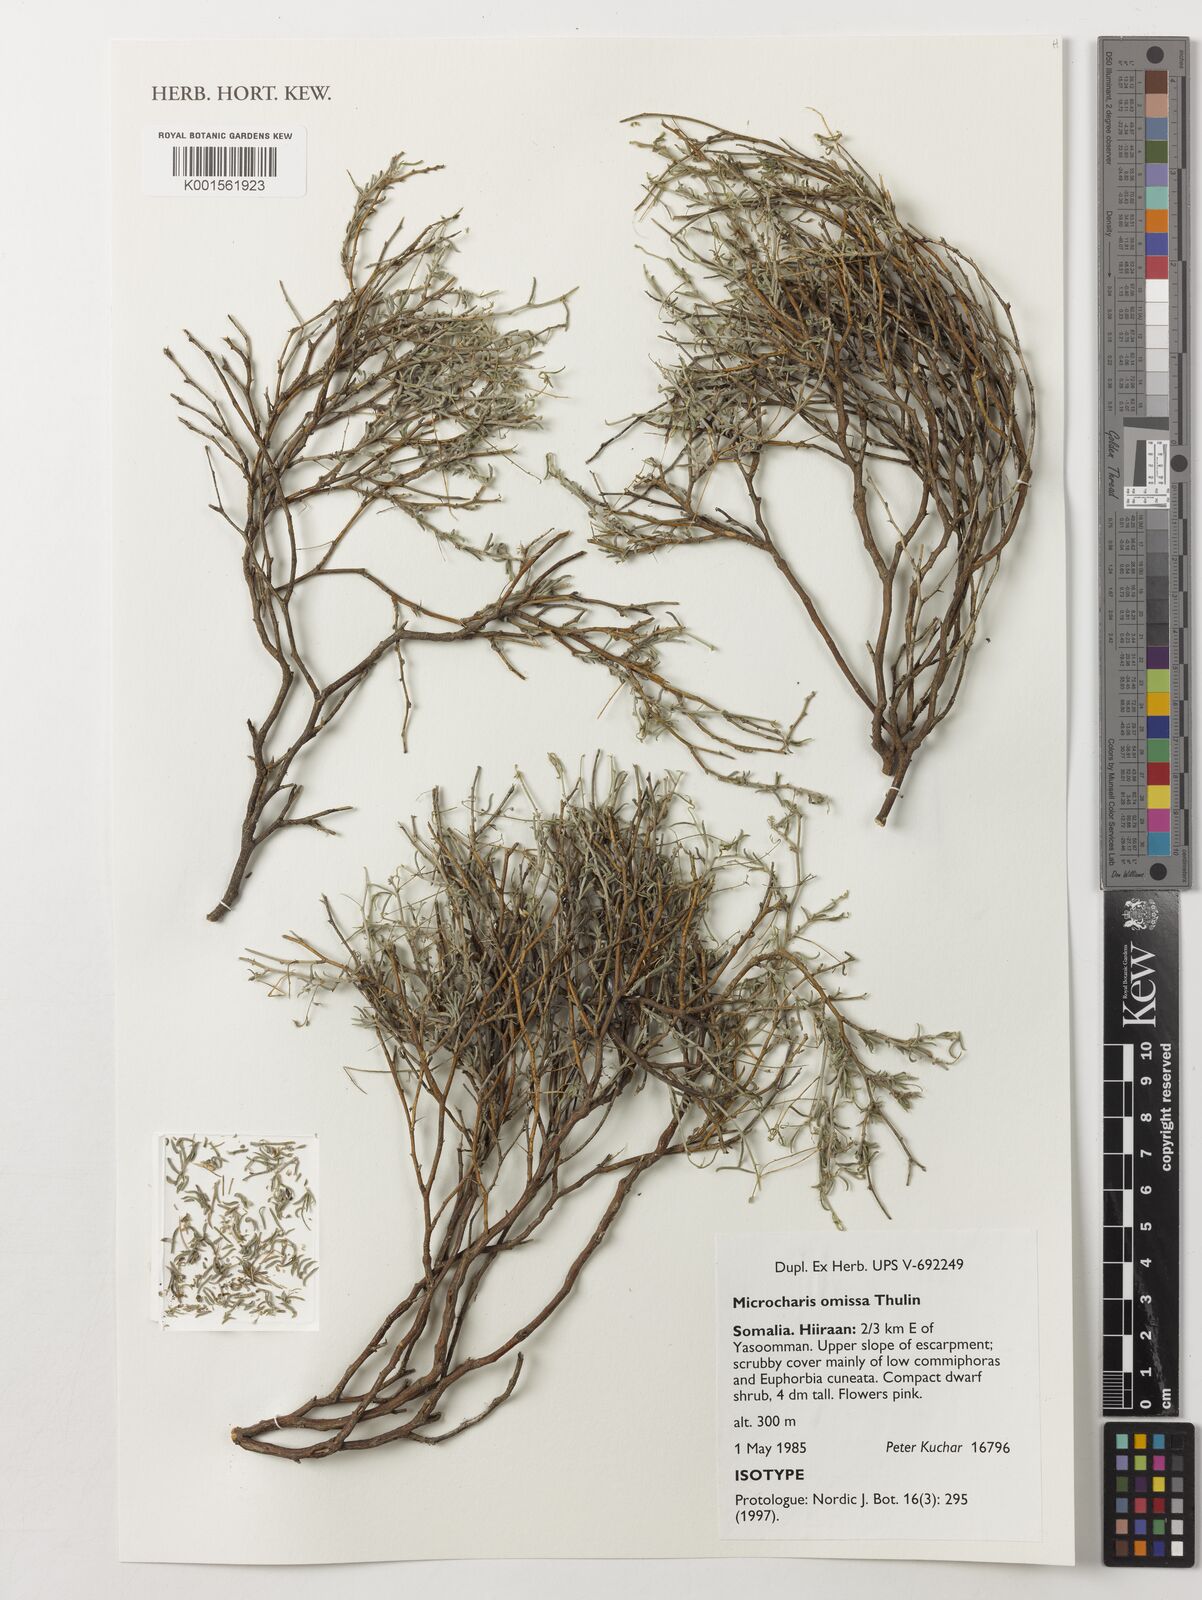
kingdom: Plantae
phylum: Tracheophyta
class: Magnoliopsida
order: Fabales
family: Fabaceae
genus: Microcharis
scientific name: Microcharis omissa
